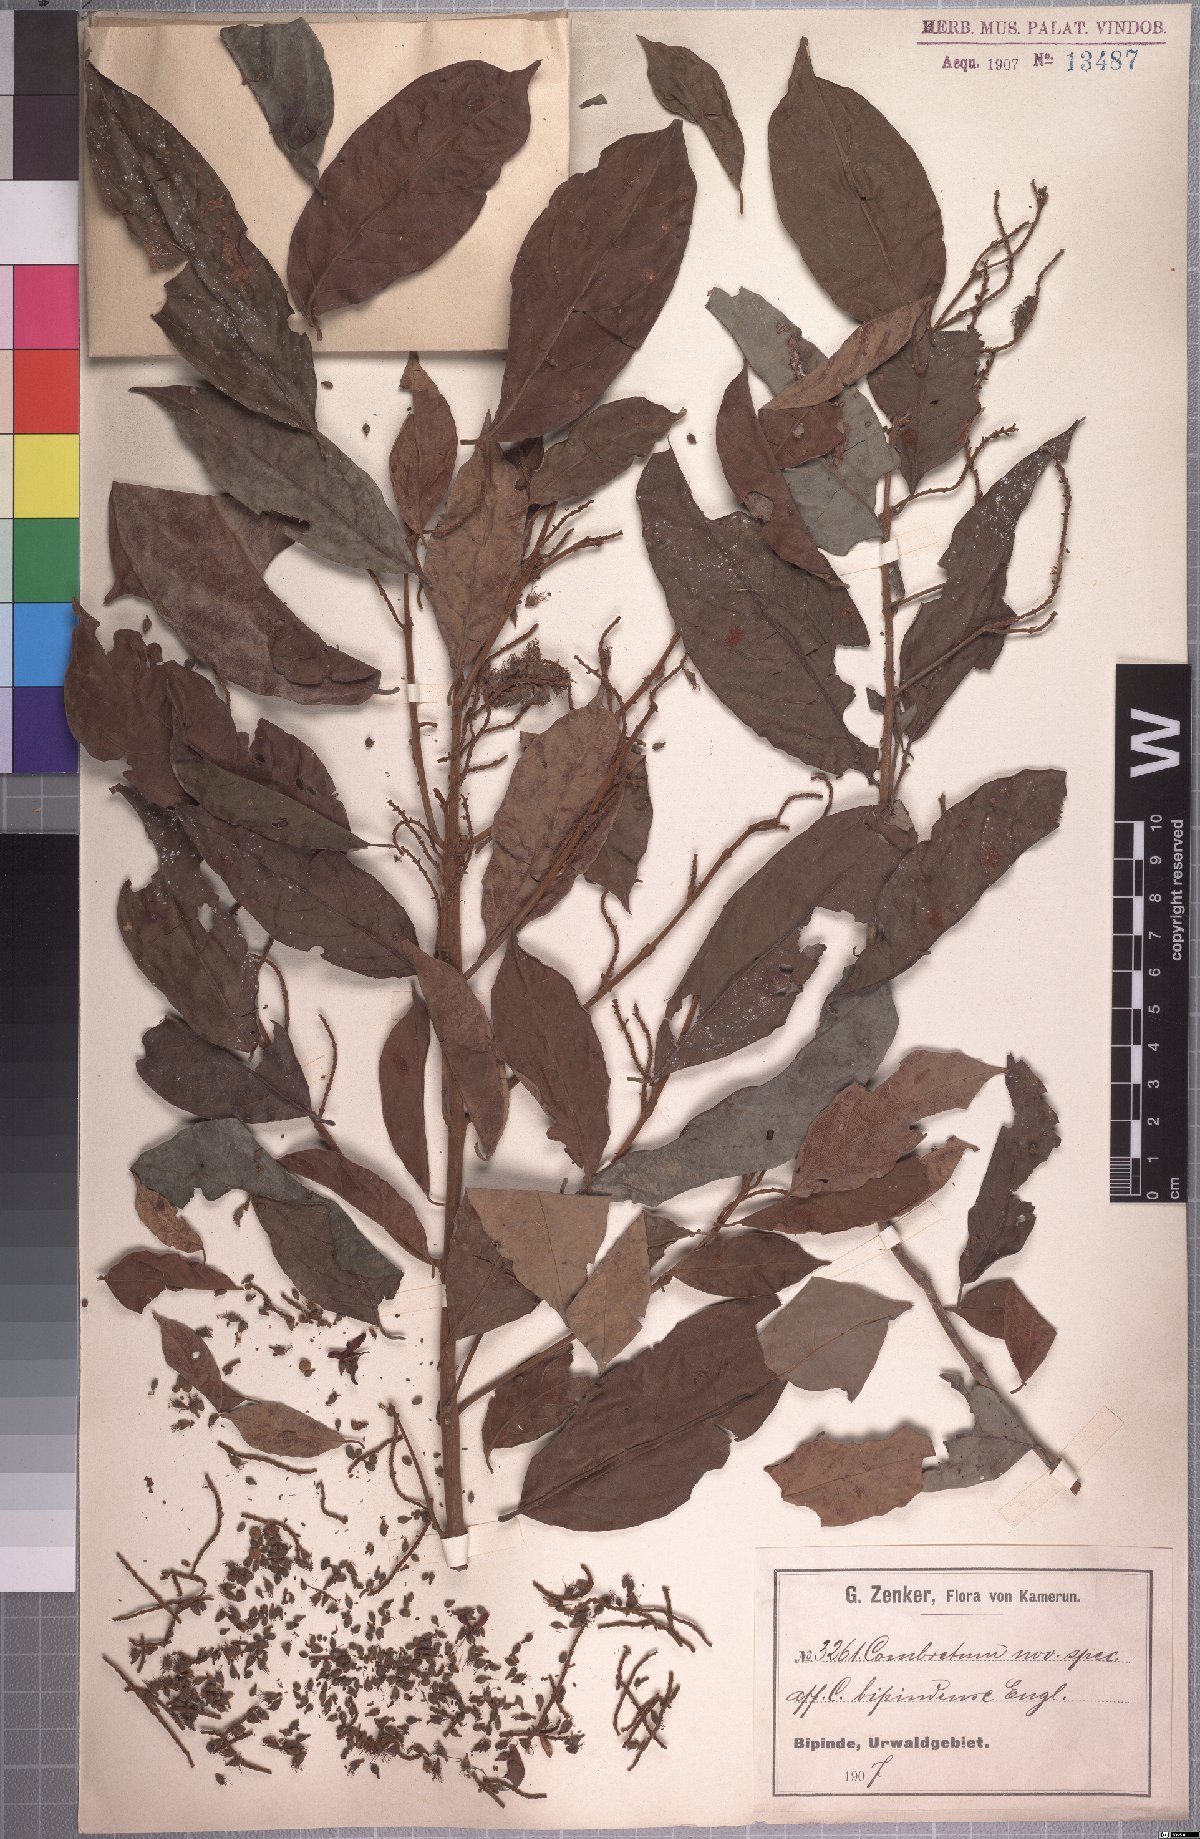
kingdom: Plantae
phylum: Tracheophyta
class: Magnoliopsida
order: Myrtales
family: Combretaceae
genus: Combretum
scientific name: Combretum sordidum
